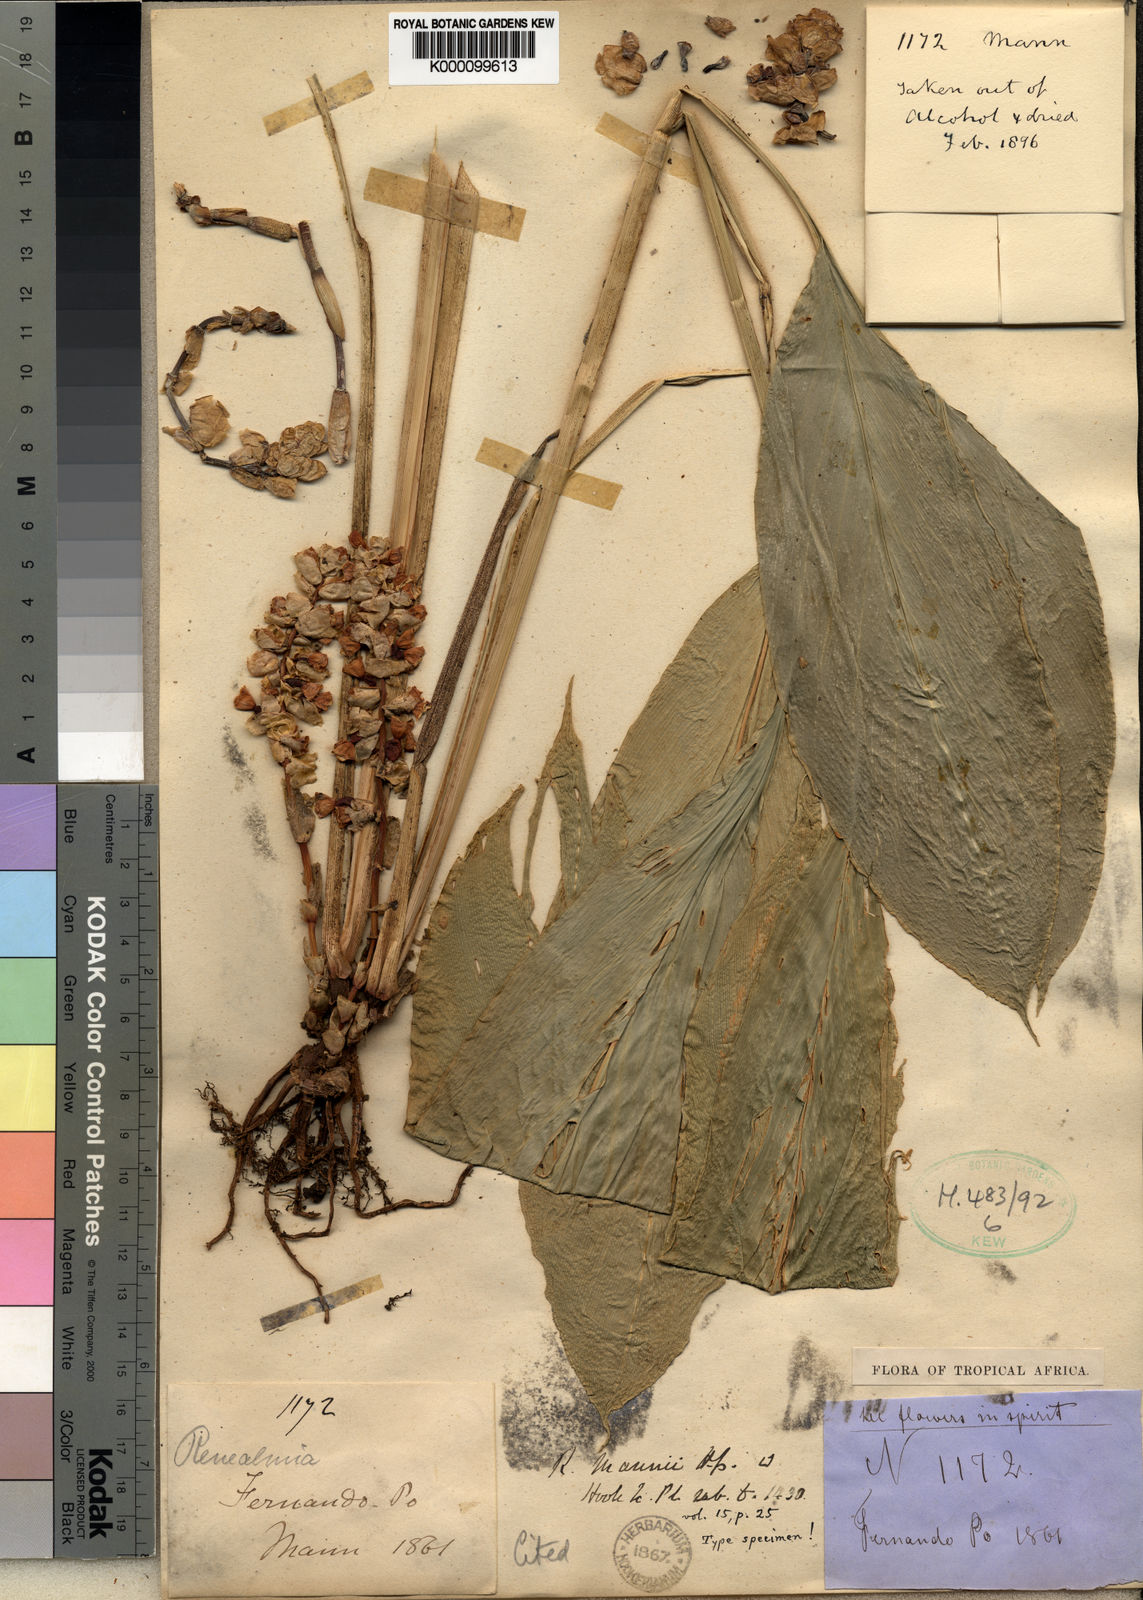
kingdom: Plantae
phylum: Tracheophyta
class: Liliopsida
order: Zingiberales
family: Zingiberaceae
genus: Renealmia
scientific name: Renealmia mannii
